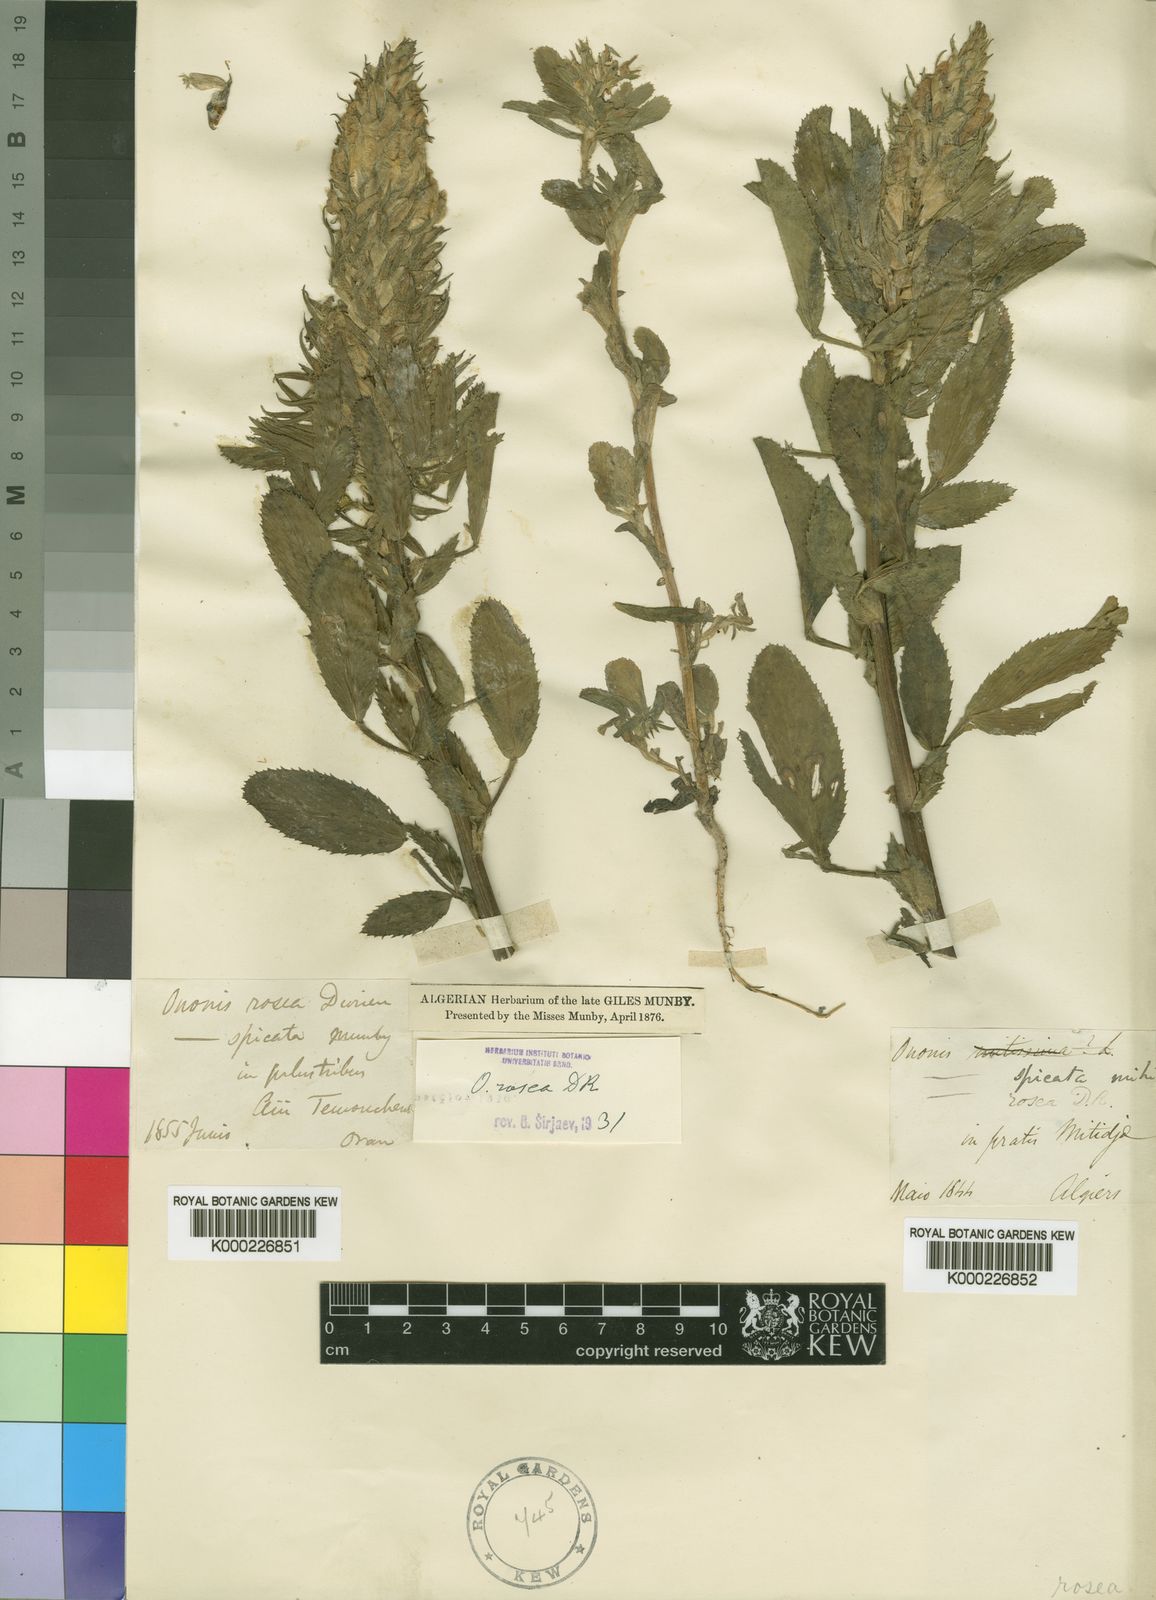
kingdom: Plantae
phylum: Tracheophyta
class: Magnoliopsida
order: Fabales
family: Fabaceae
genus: Ononis
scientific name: Ononis
